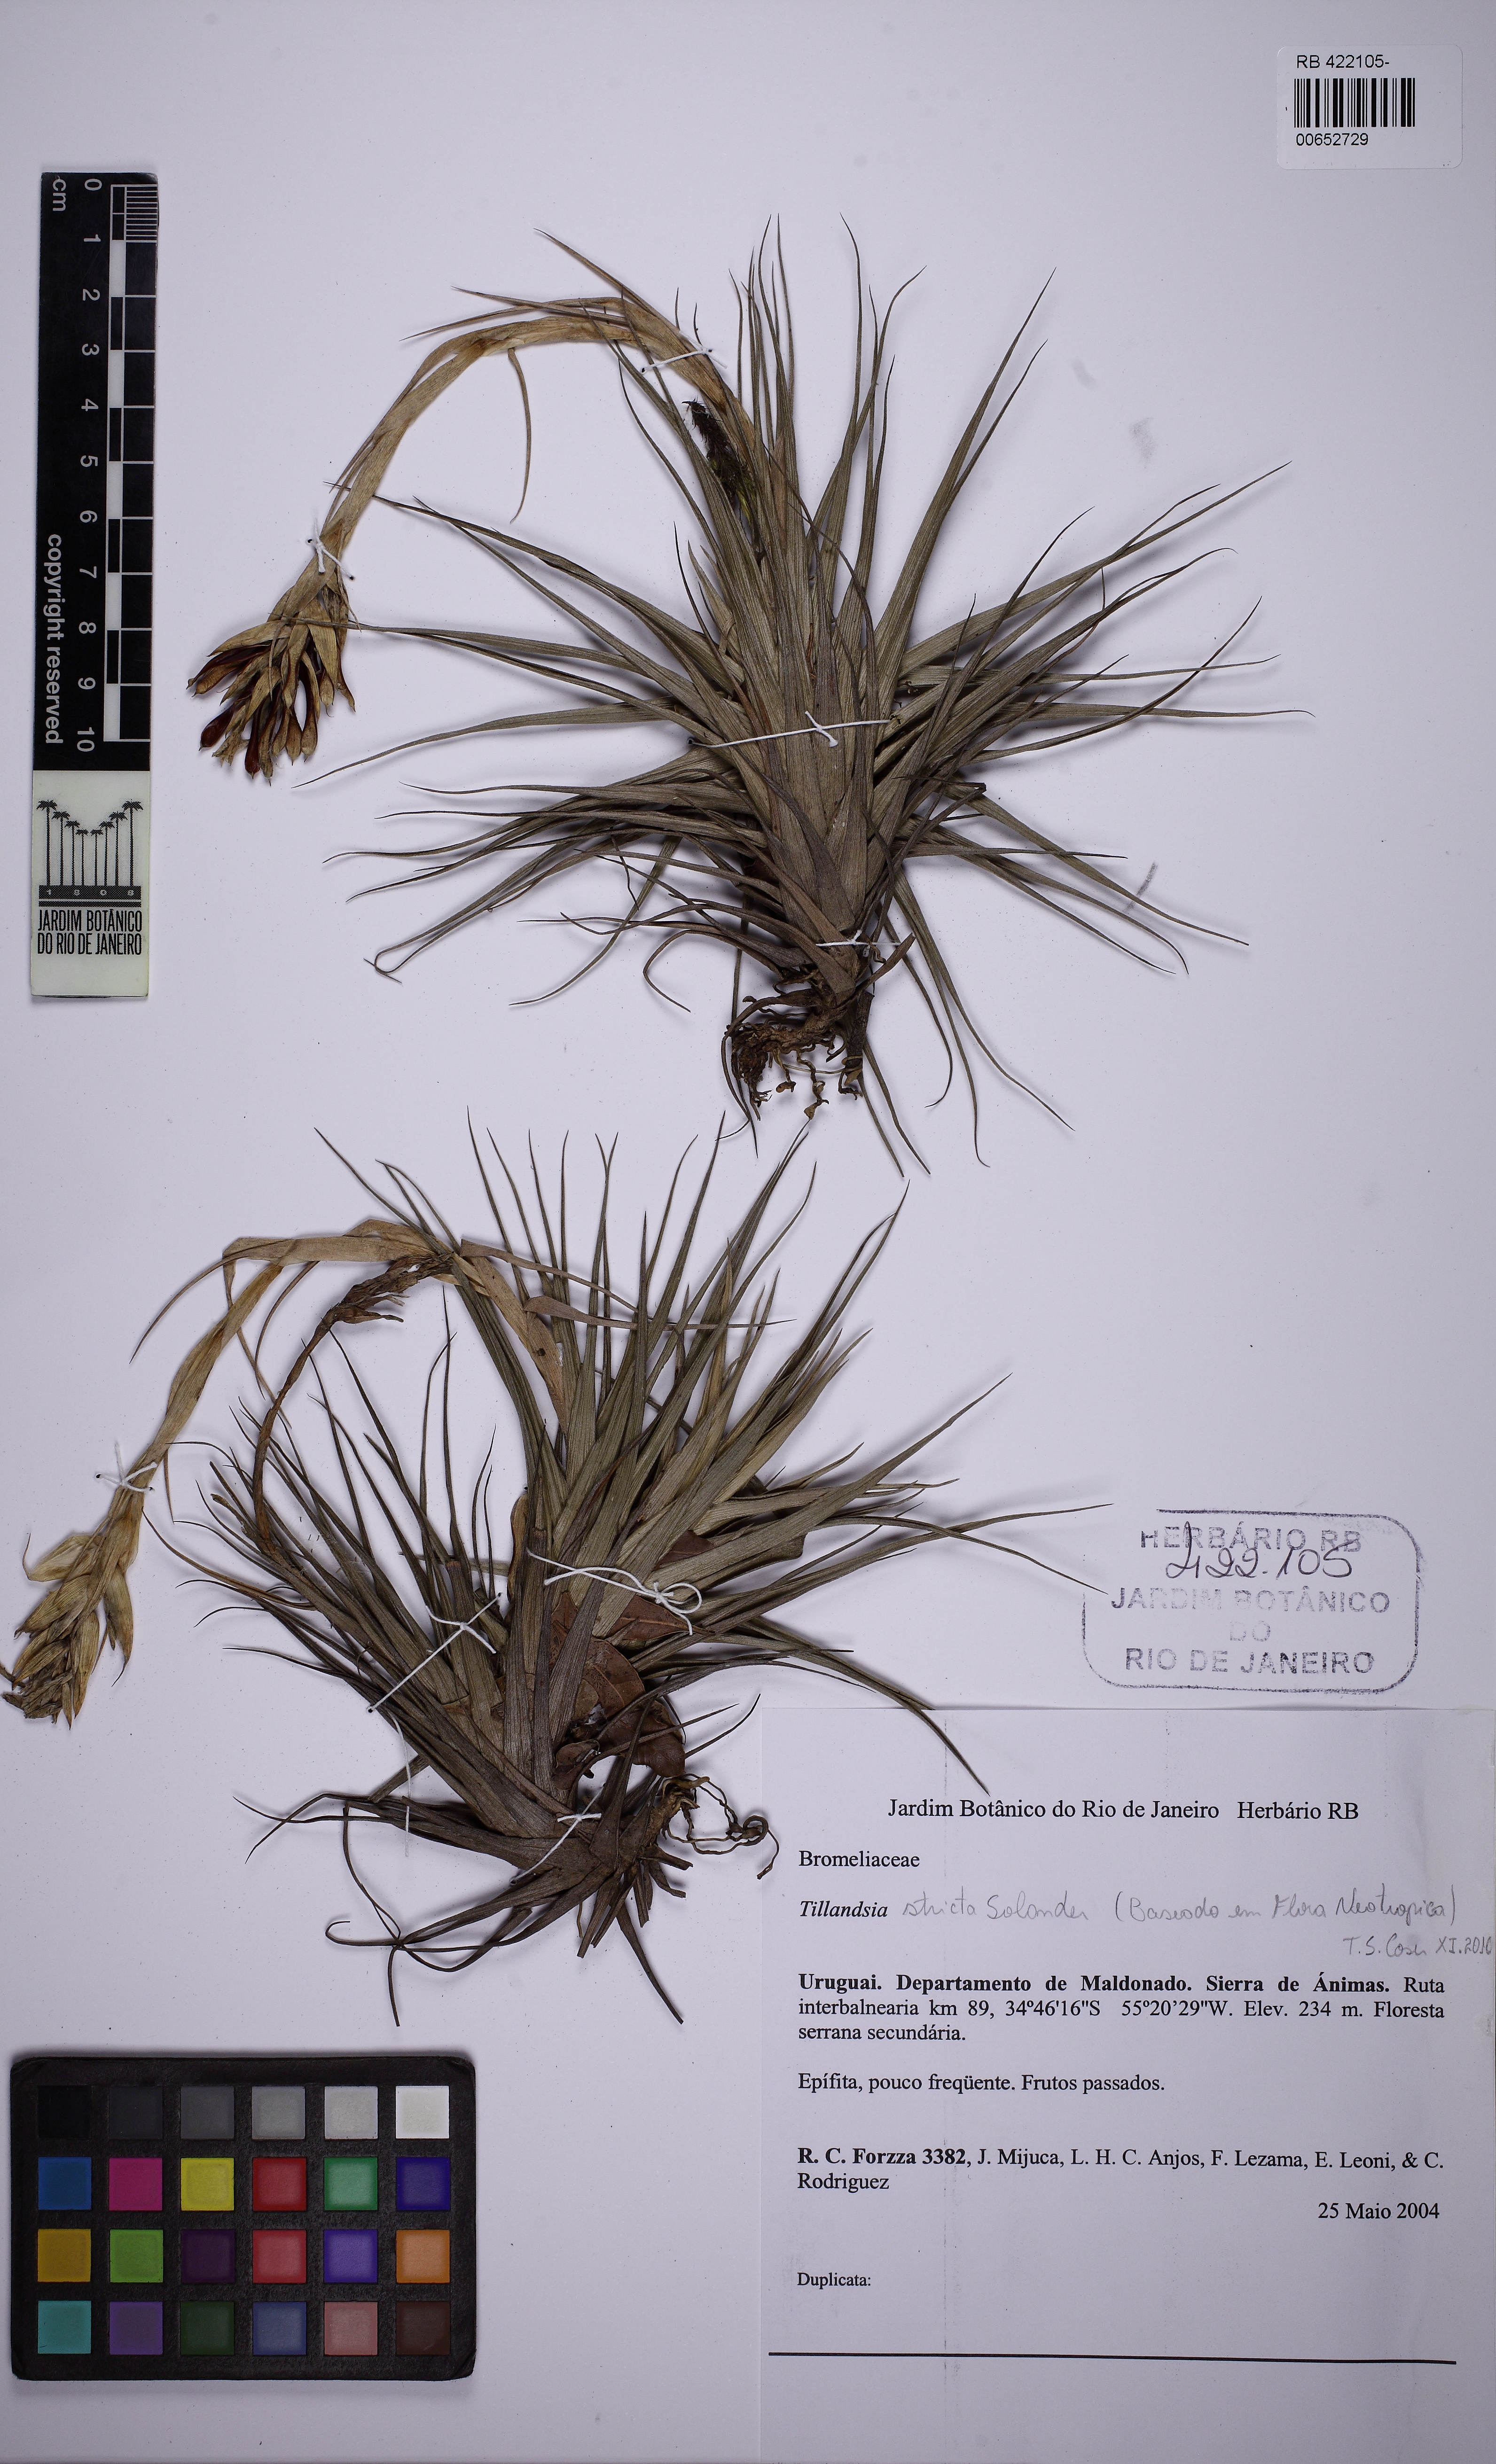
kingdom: Plantae
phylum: Tracheophyta
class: Liliopsida
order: Poales
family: Bromeliaceae
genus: Tillandsia
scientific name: Tillandsia aeranthos
